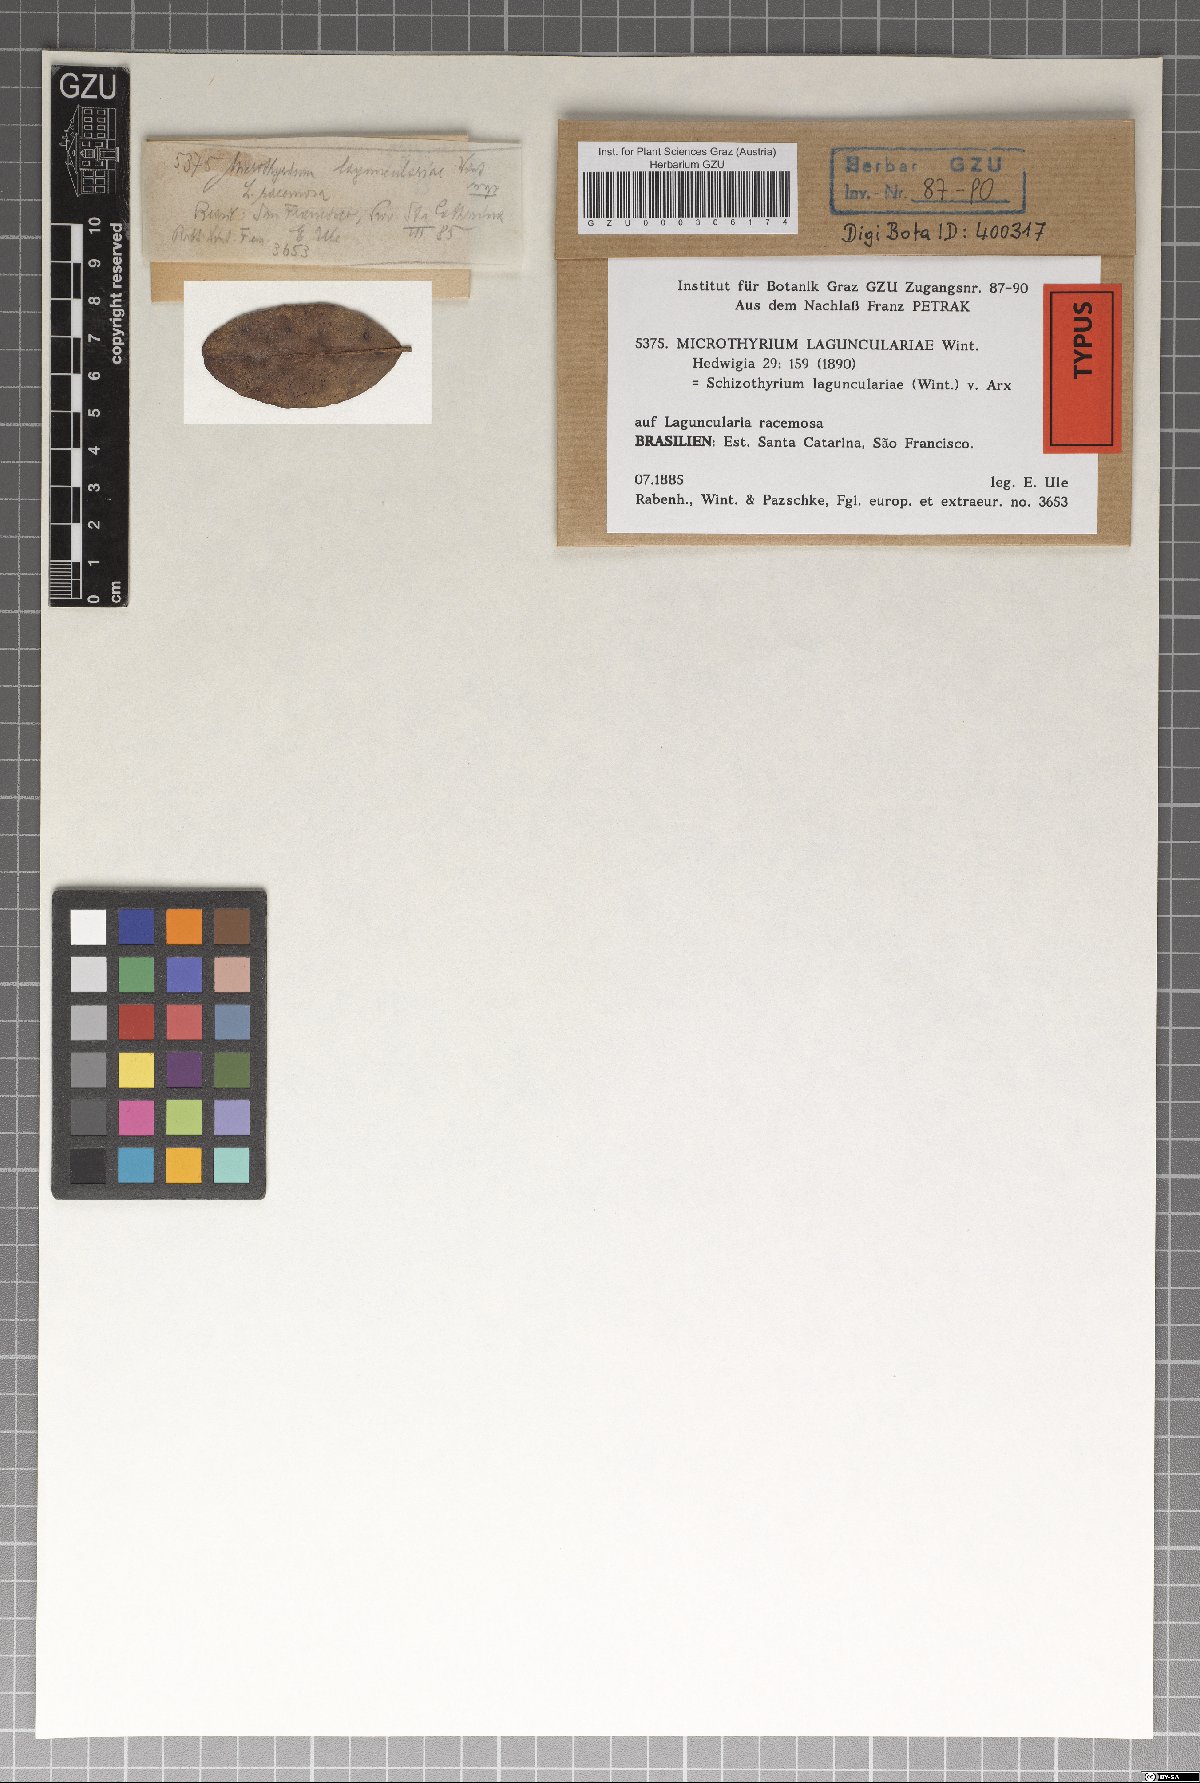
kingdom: Fungi
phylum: Ascomycota
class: Dothideomycetes
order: Mycosphaerellales
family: Schizothyriaceae
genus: Schizothyrium
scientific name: Schizothyrium lagunculariae
